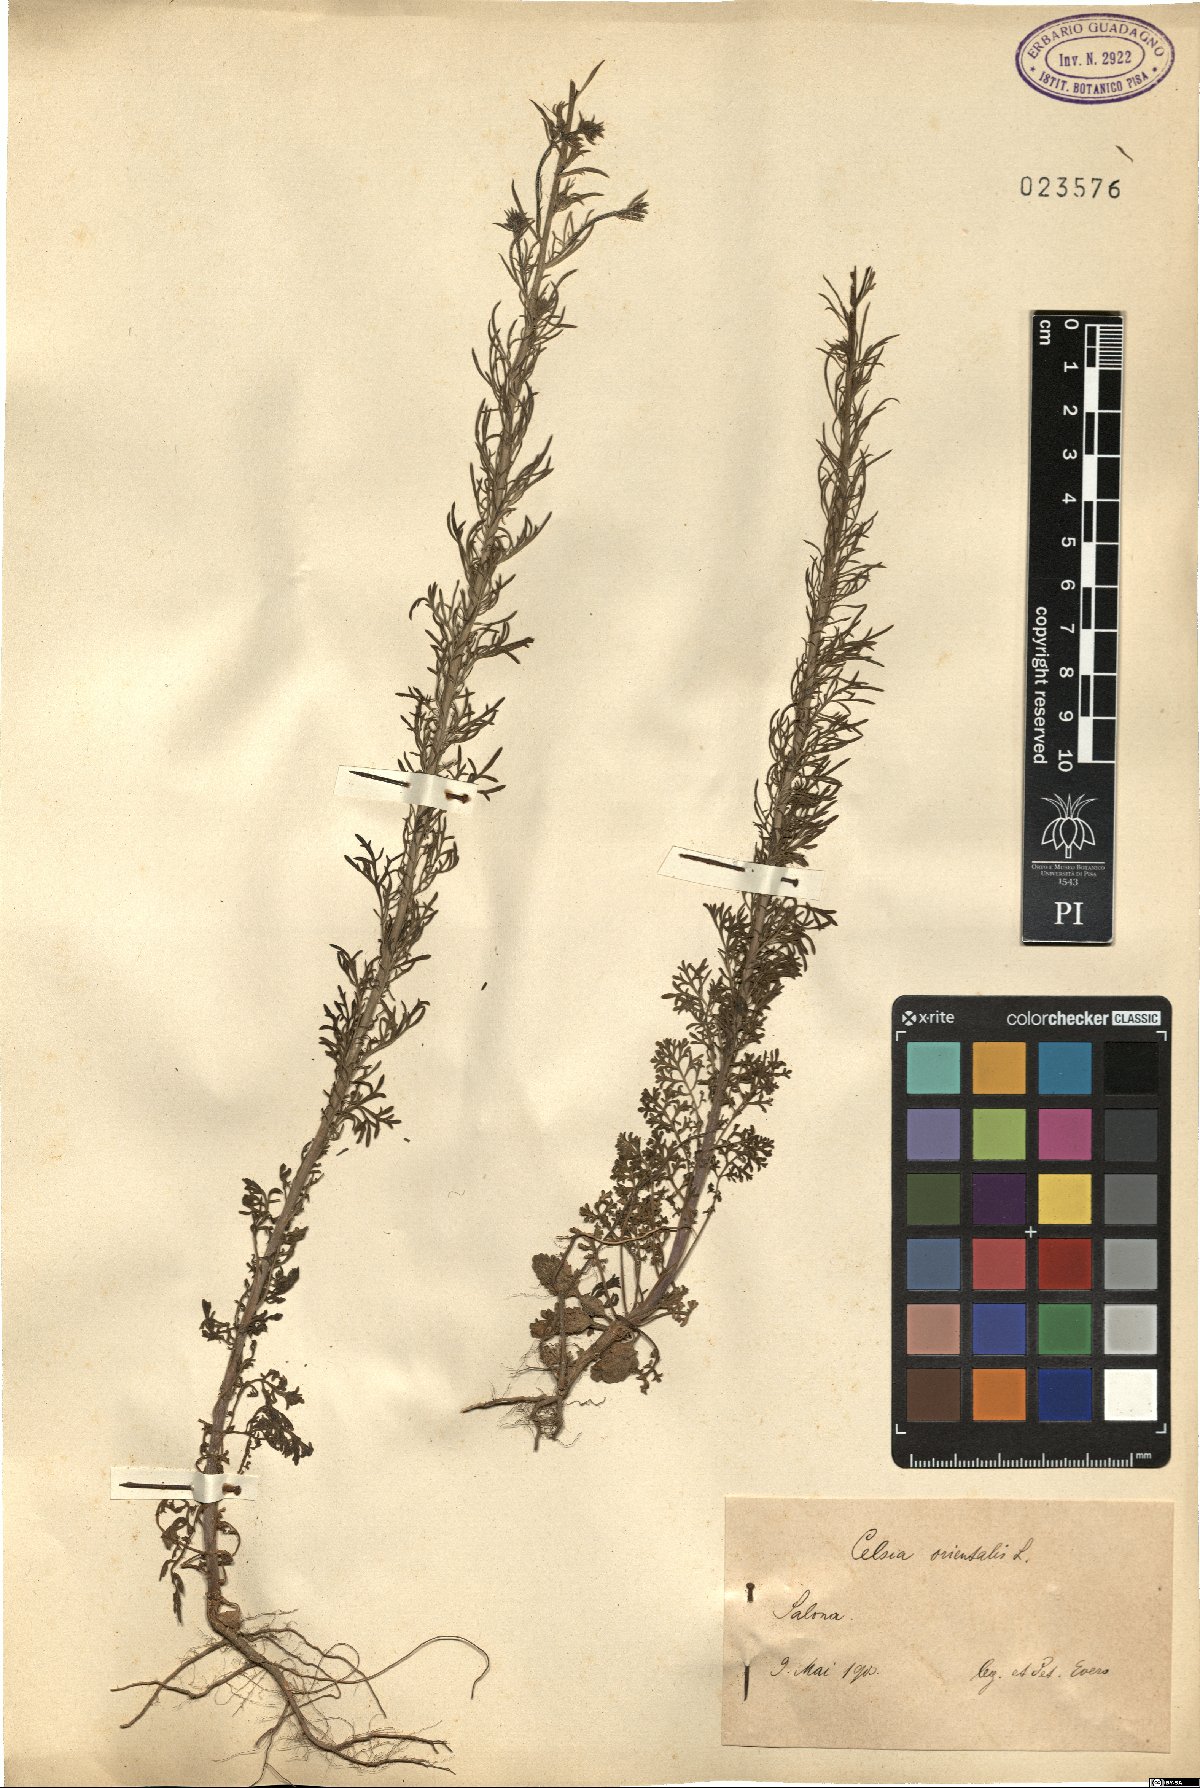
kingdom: Plantae
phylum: Tracheophyta
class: Magnoliopsida
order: Lamiales
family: Scrophulariaceae
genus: Verbascum
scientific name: Verbascum orientale
